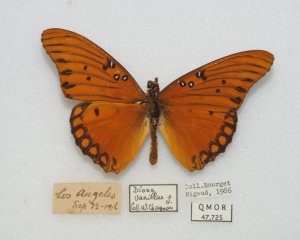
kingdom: Animalia
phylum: Arthropoda
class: Insecta
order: Lepidoptera
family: Nymphalidae
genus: Dione
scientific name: Dione vanillae
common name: Gulf Fritillary
